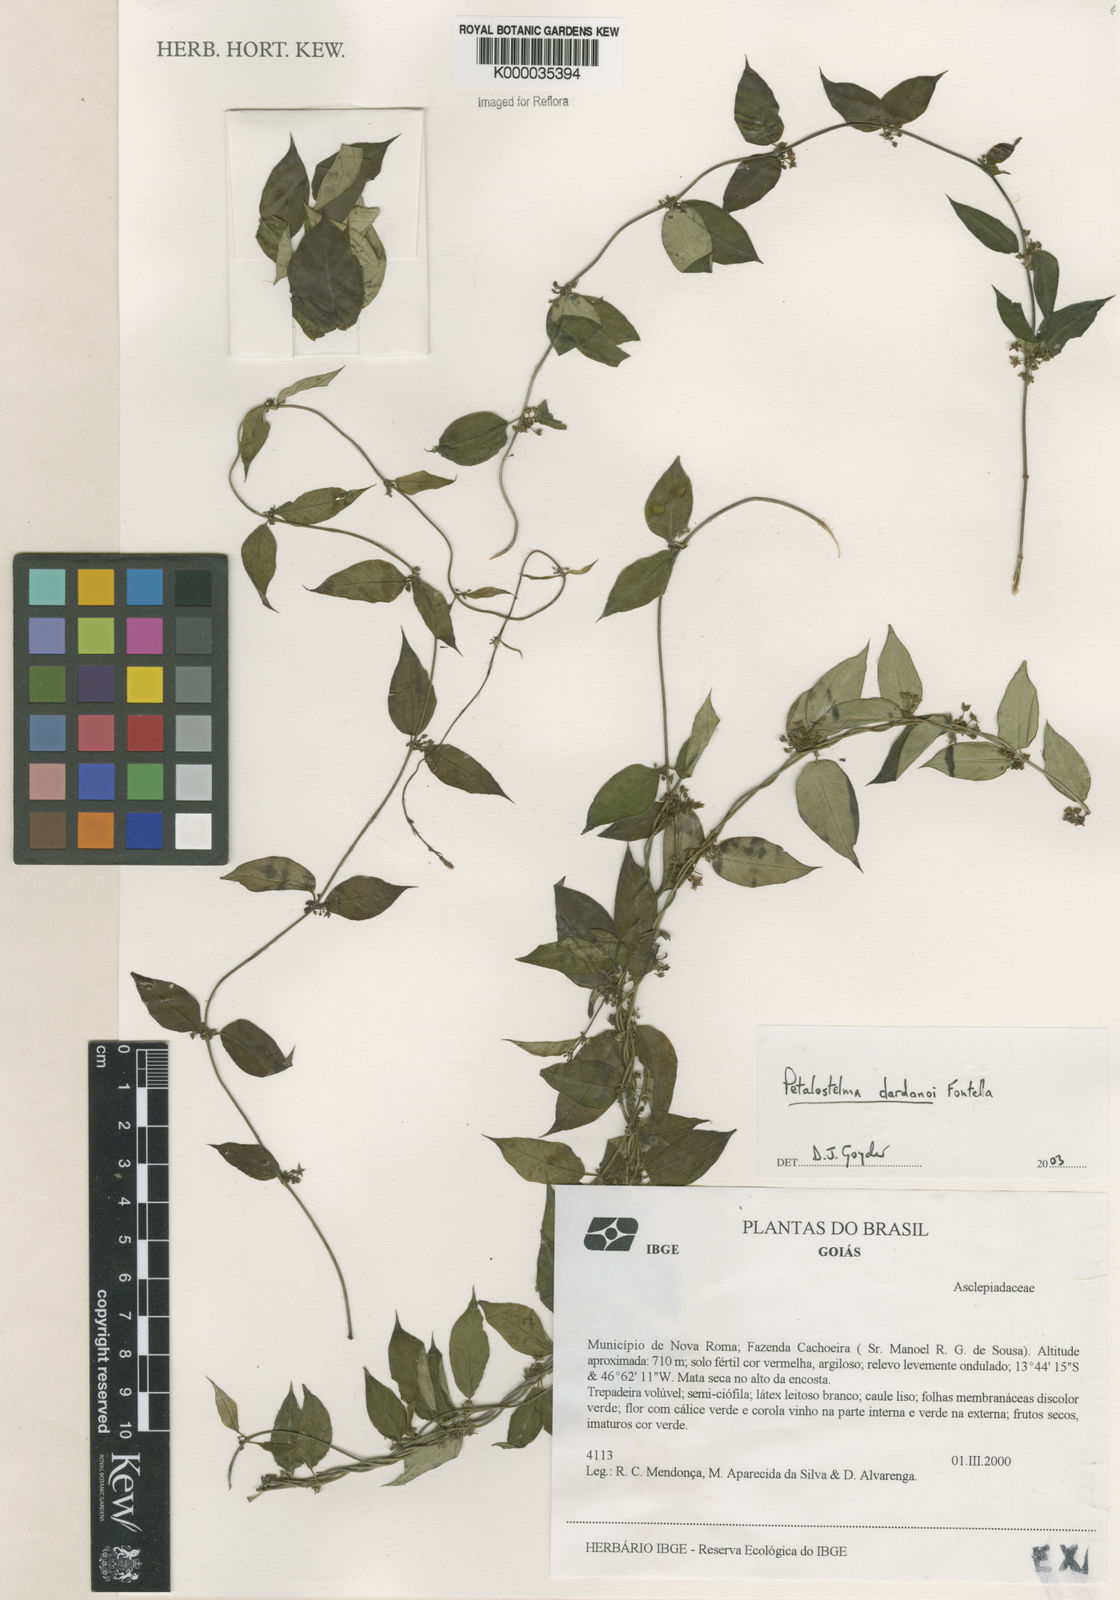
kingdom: Plantae
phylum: Tracheophyta
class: Magnoliopsida
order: Gentianales
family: Apocynaceae
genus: Petalostelma
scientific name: Petalostelma dardanoi
